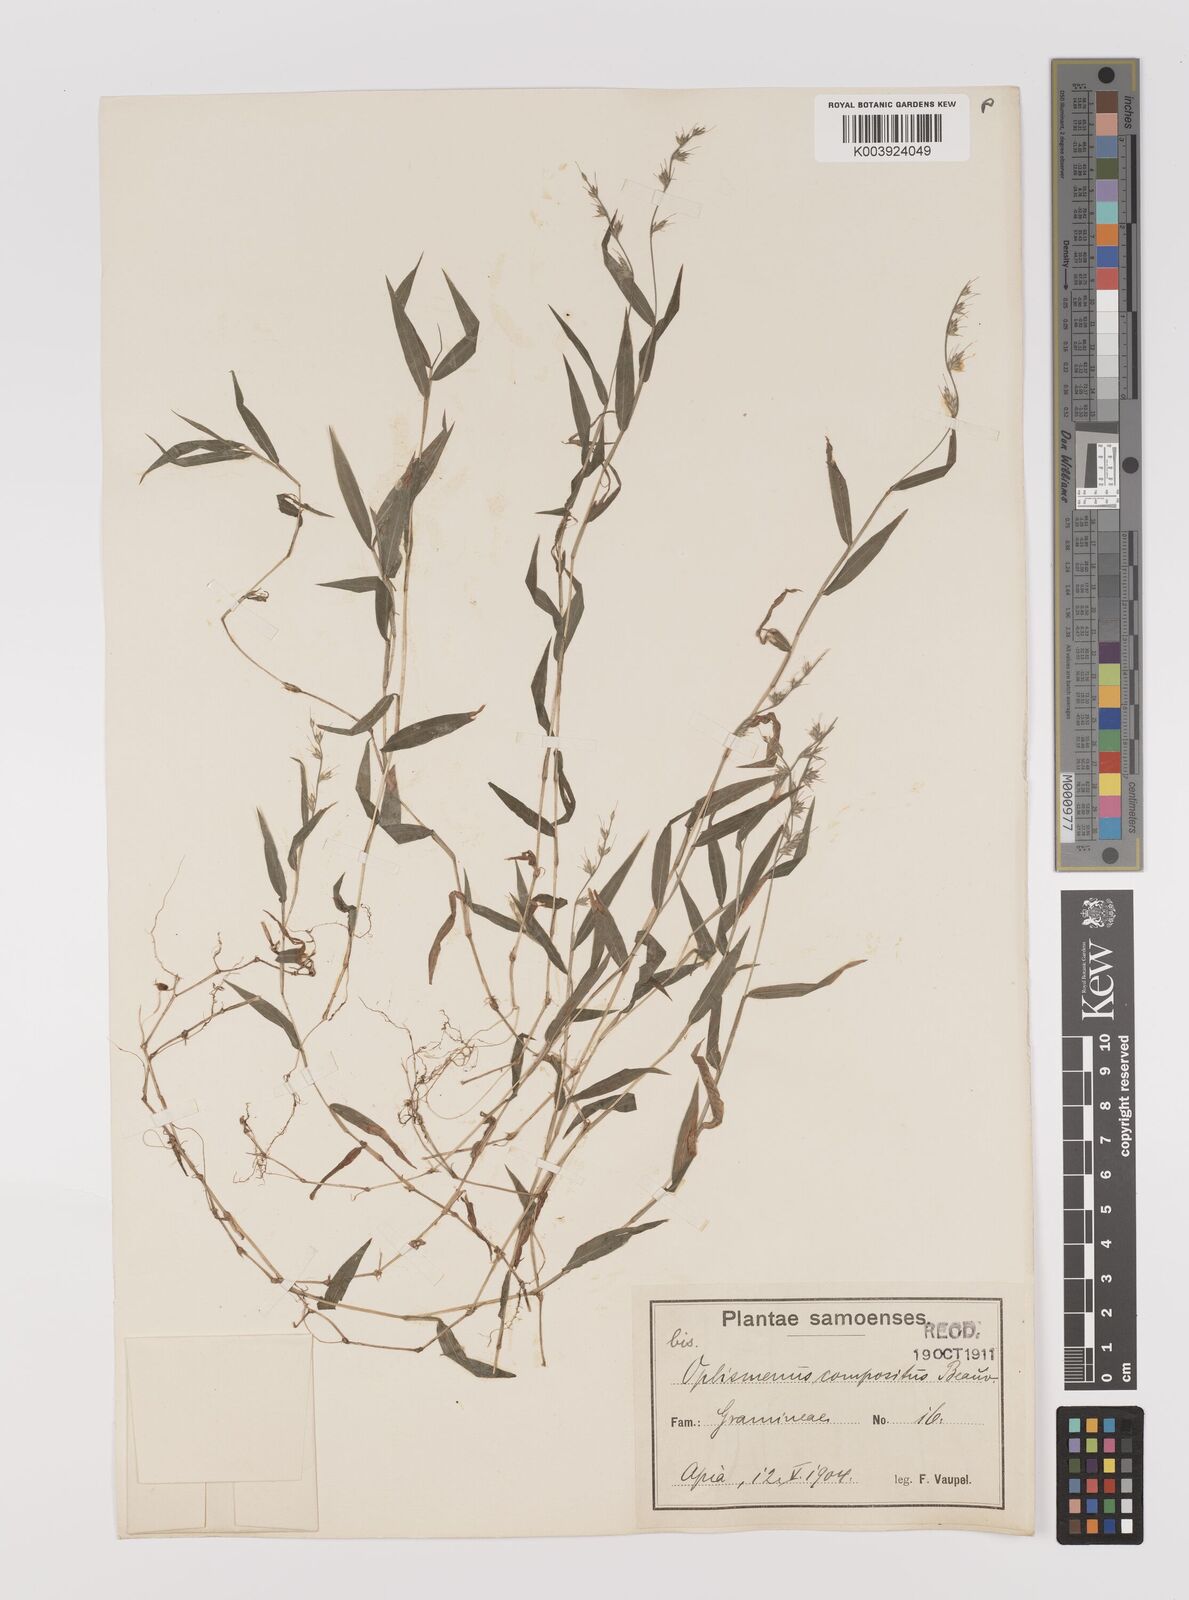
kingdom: Plantae
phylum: Tracheophyta
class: Liliopsida
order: Poales
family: Poaceae
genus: Oplismenus
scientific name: Oplismenus hirtellus
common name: Basketgrass
